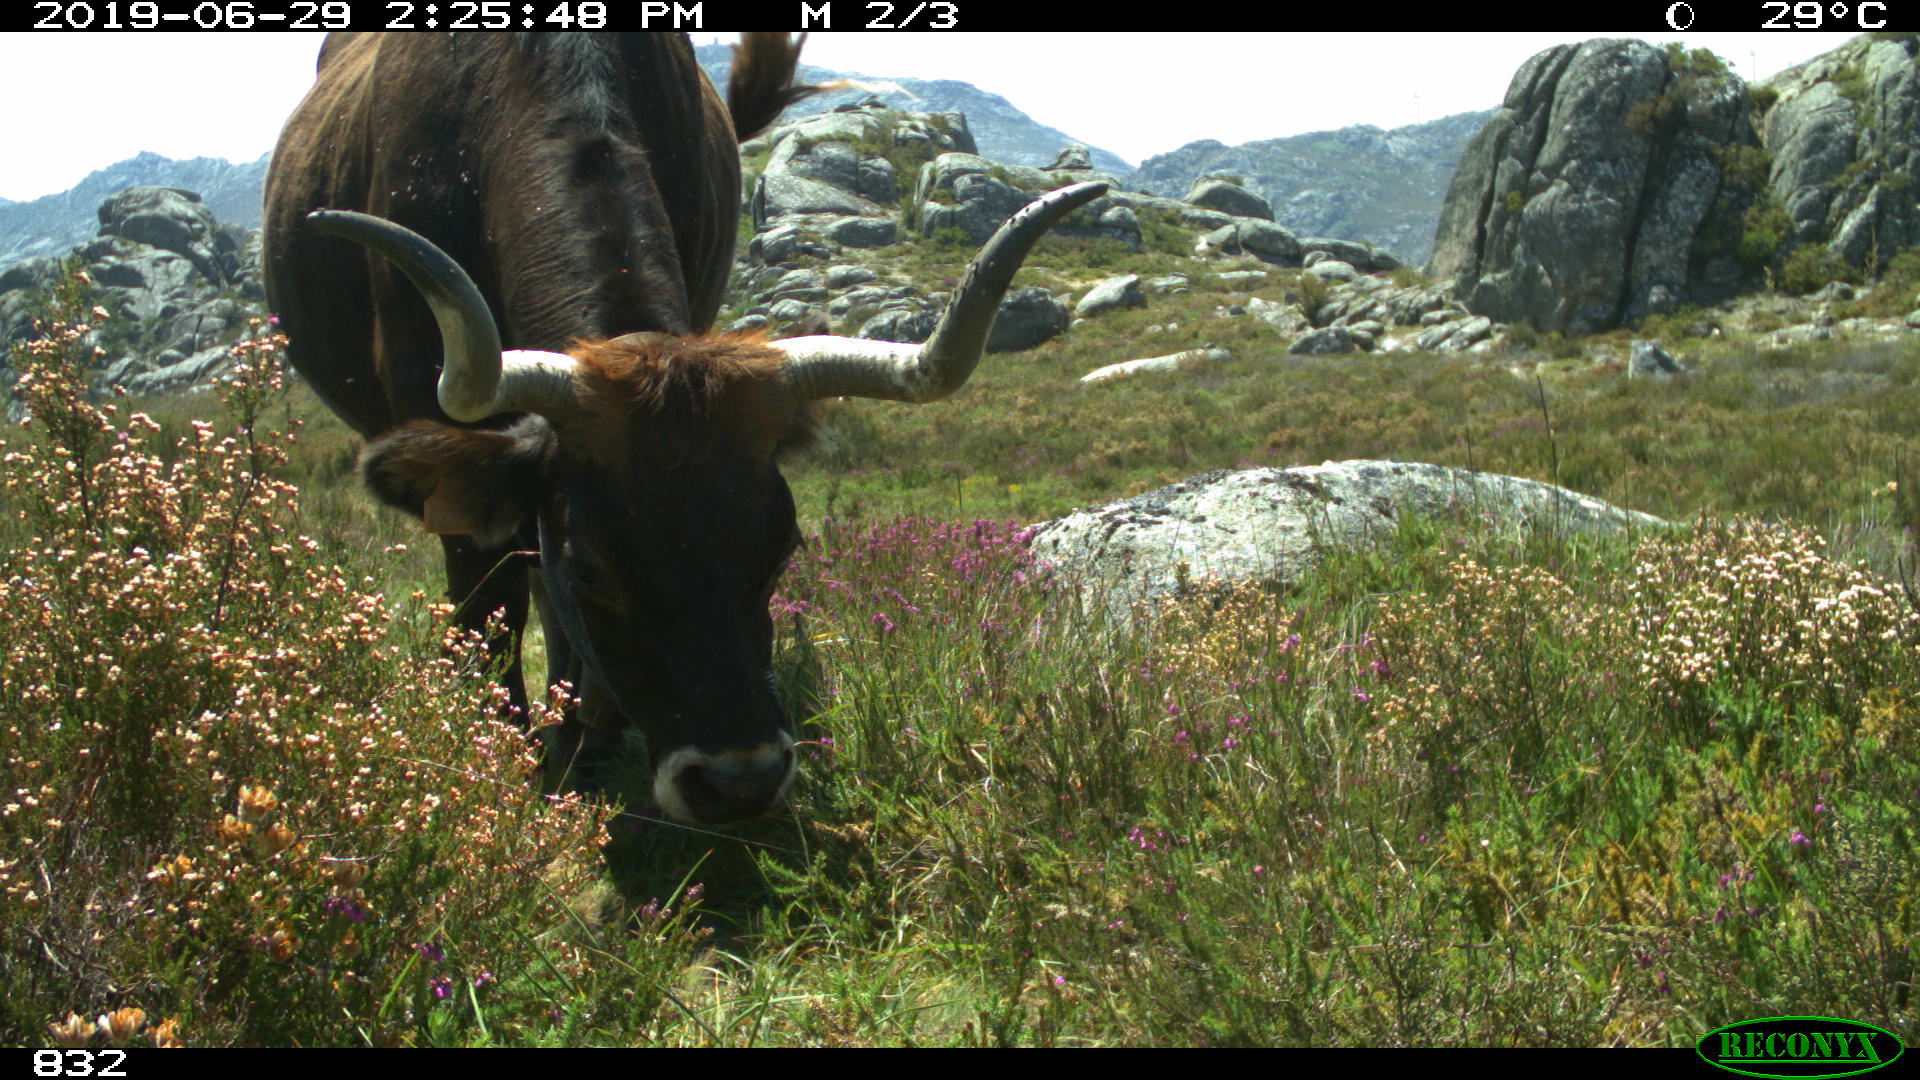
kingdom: Animalia
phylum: Chordata
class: Mammalia
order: Artiodactyla
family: Bovidae
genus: Bos
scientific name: Bos taurus
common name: Domesticated cattle
